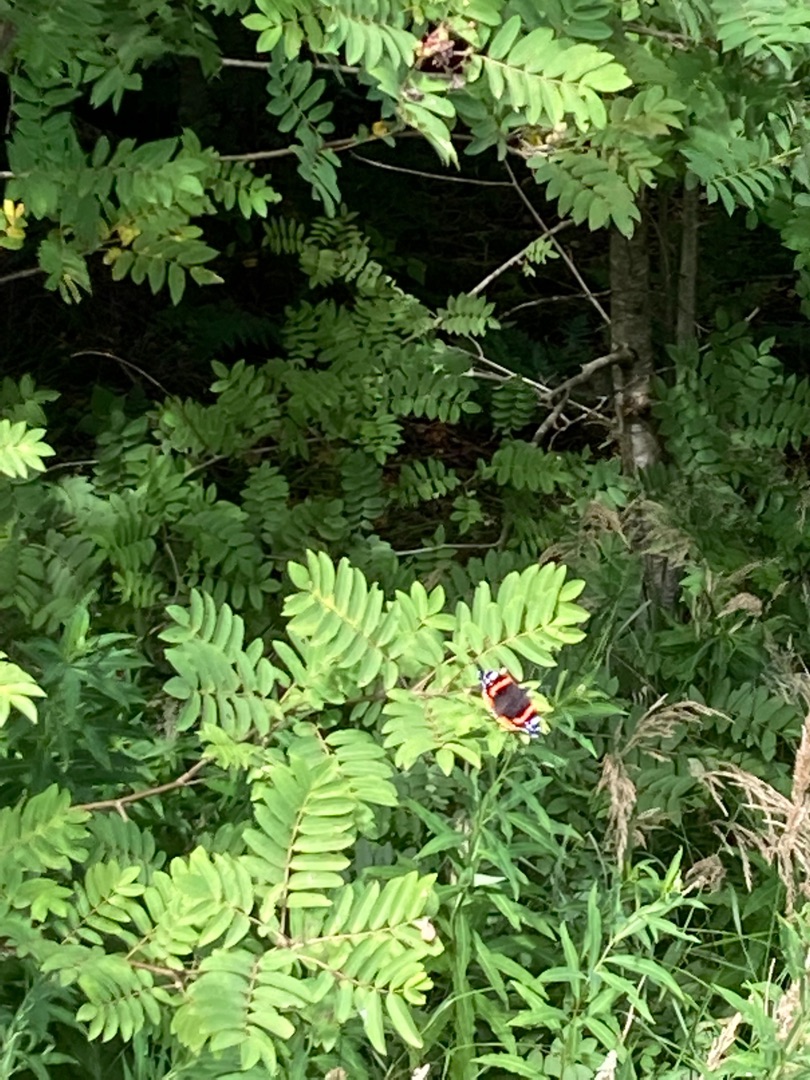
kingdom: Animalia
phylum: Arthropoda
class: Insecta
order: Lepidoptera
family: Nymphalidae
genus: Vanessa
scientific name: Vanessa atalanta
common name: Admiral
